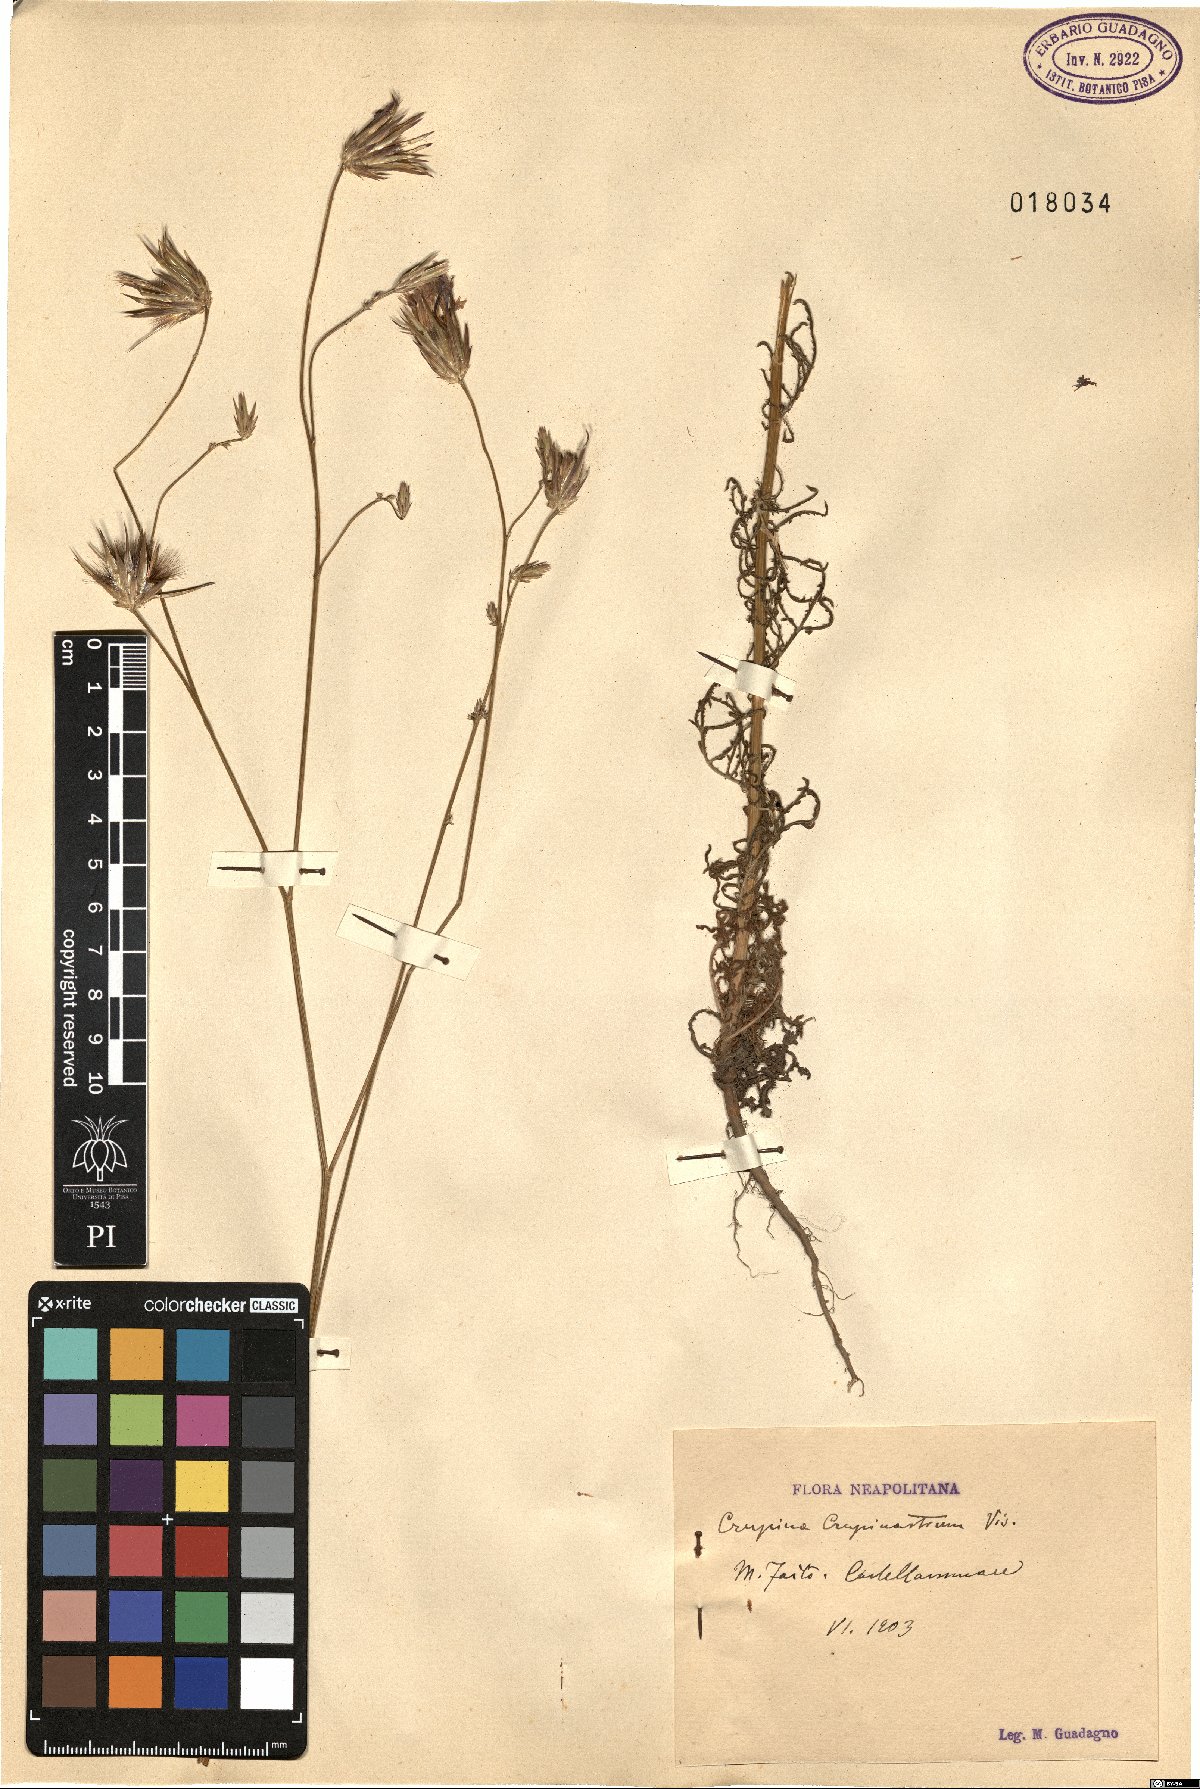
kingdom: Plantae
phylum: Tracheophyta
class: Magnoliopsida
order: Asterales
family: Asteraceae
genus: Crupina
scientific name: Crupina crupinastrum
